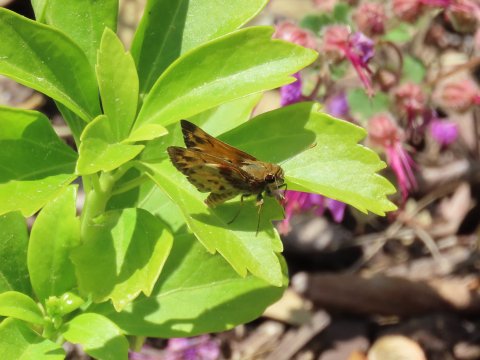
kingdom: Animalia
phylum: Arthropoda
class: Insecta
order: Lepidoptera
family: Hesperiidae
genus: Lon
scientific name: Lon zabulon
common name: Zabulon Skipper
